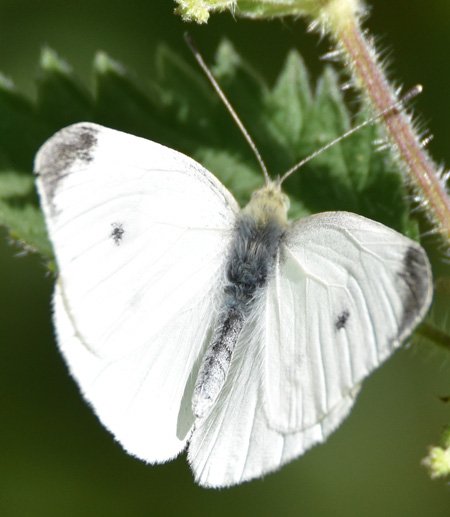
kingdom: Animalia
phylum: Arthropoda
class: Insecta
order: Lepidoptera
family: Pieridae
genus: Pieris
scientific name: Pieris rapae
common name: Cabbage White
